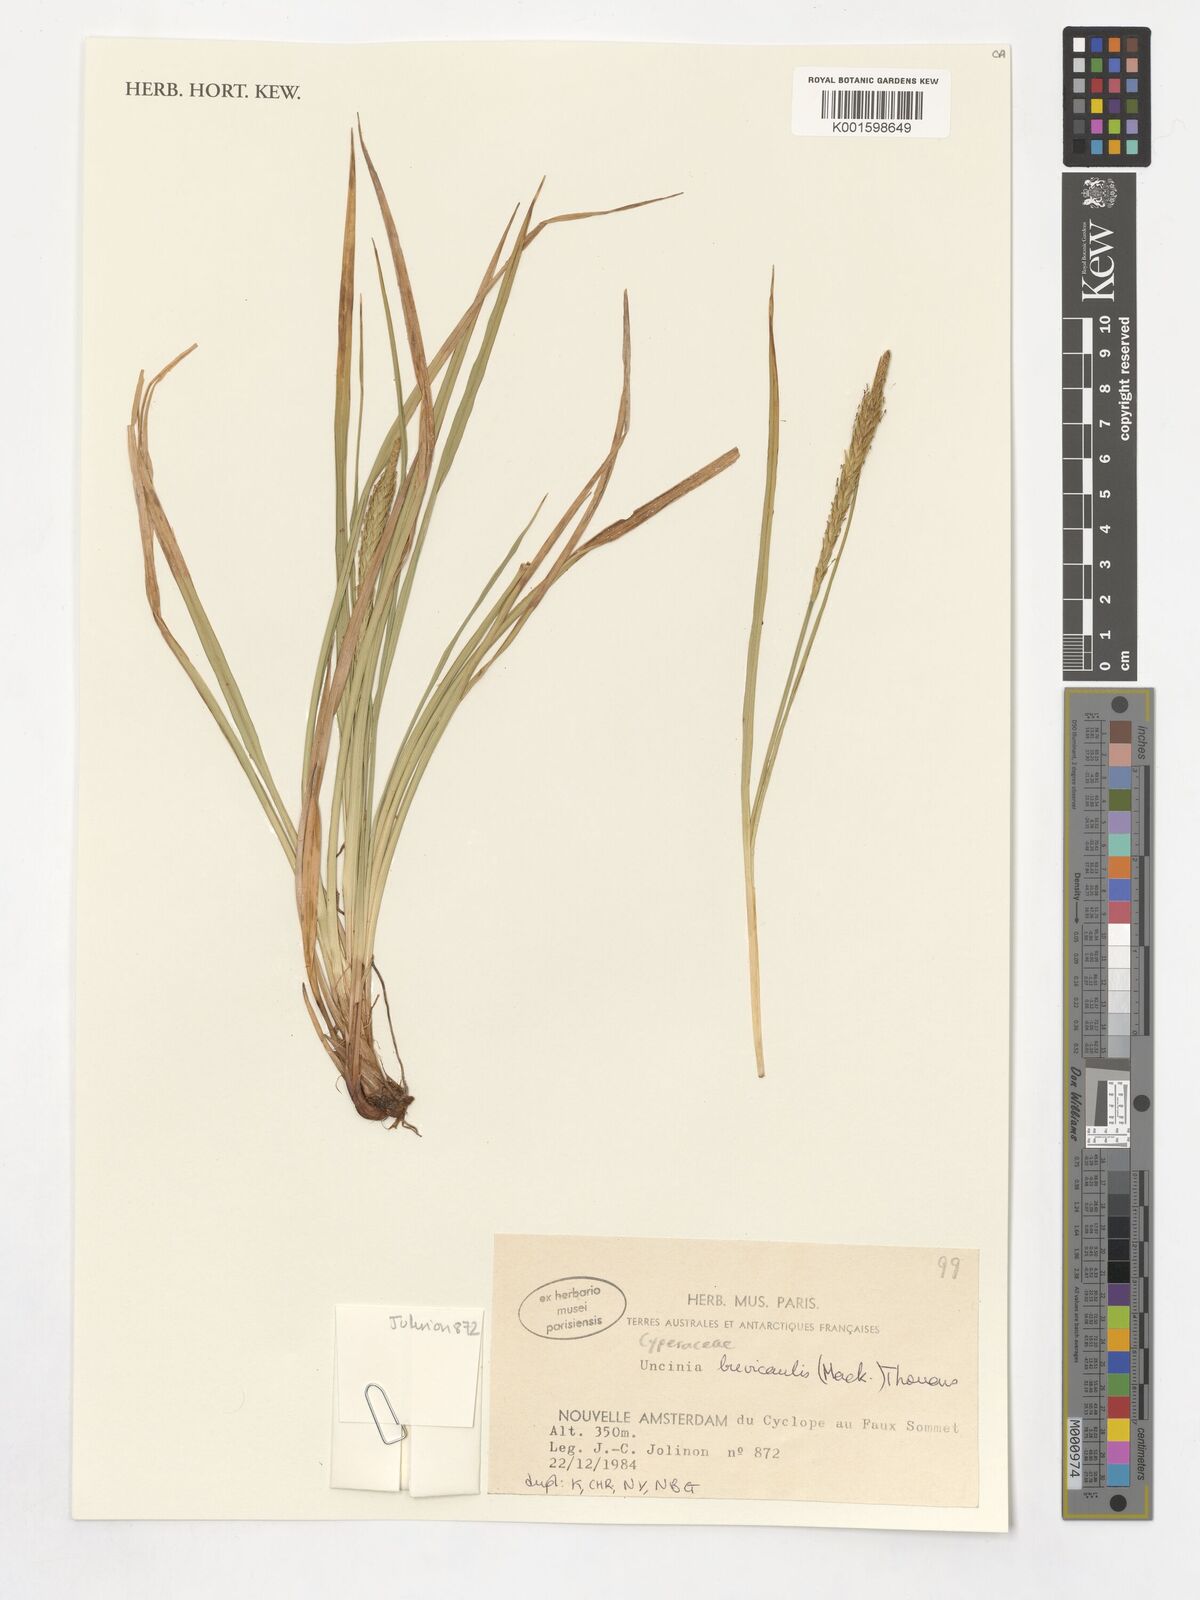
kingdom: Plantae
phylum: Tracheophyta
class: Liliopsida
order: Poales
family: Cyperaceae
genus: Carex
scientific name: Carex brevicaulis
